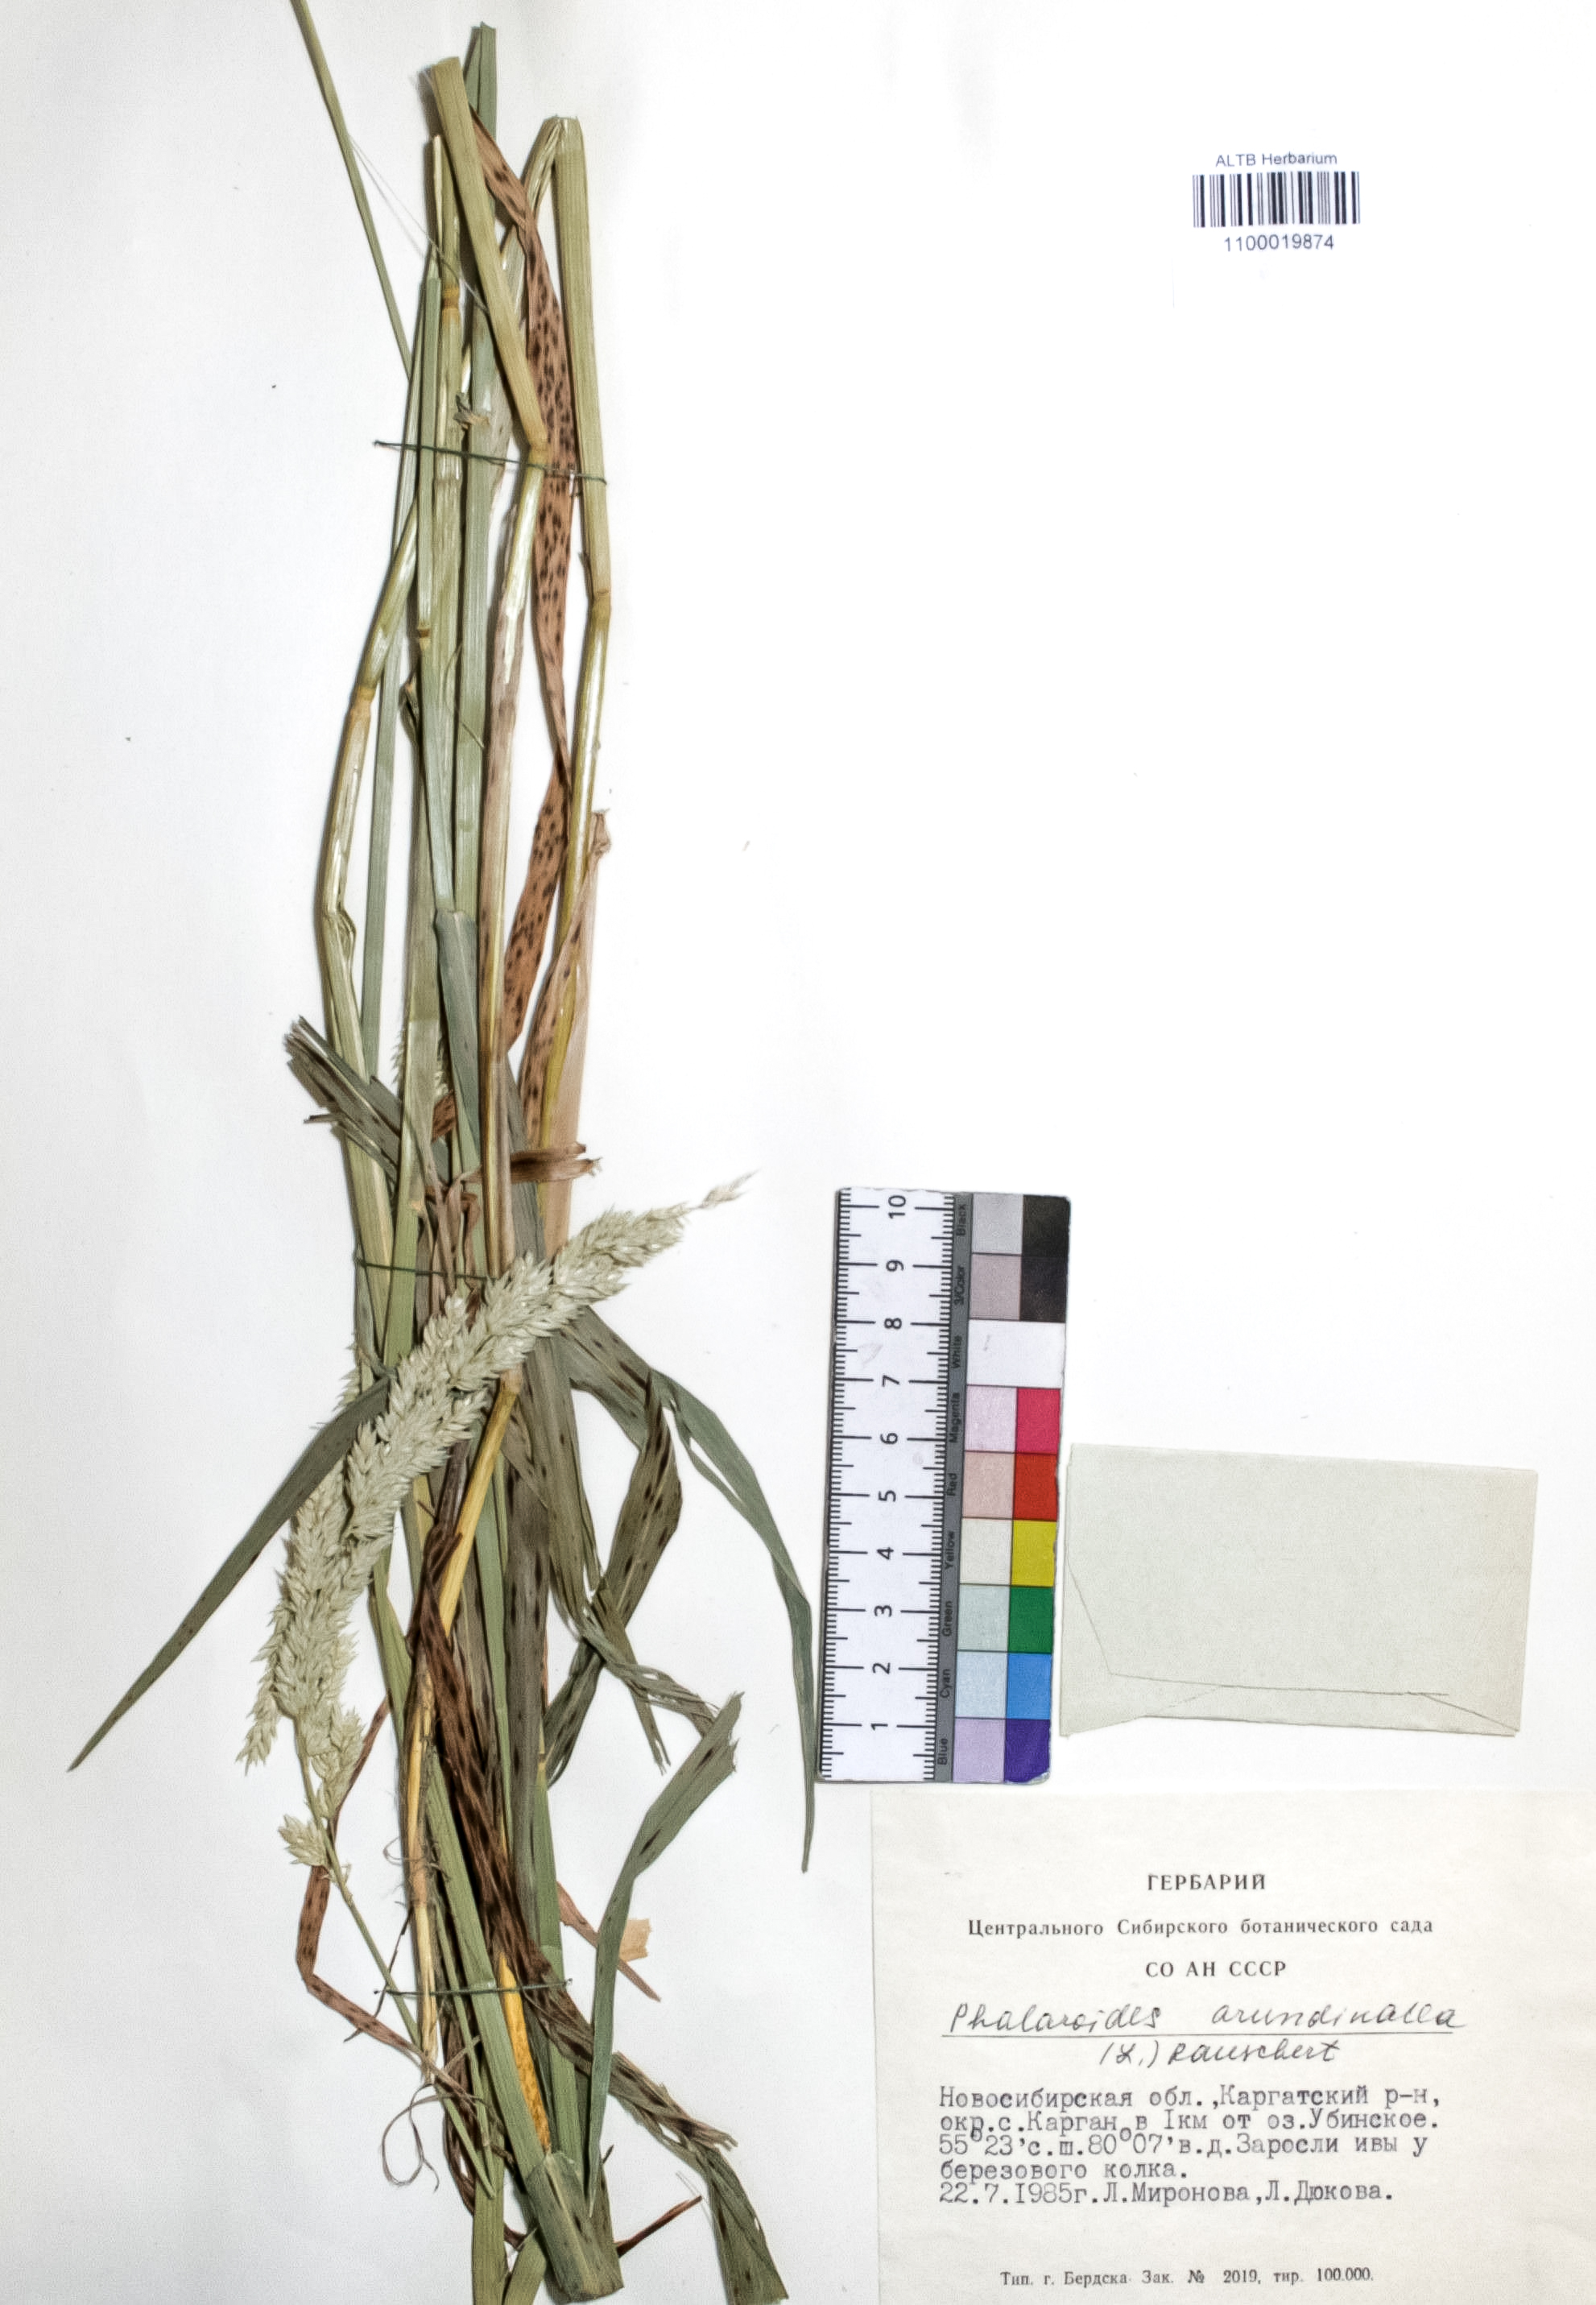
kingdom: Plantae
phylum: Tracheophyta
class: Liliopsida
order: Poales
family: Poaceae
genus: Phalaris
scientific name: Phalaris arundinacea
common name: Reed canary-grass
